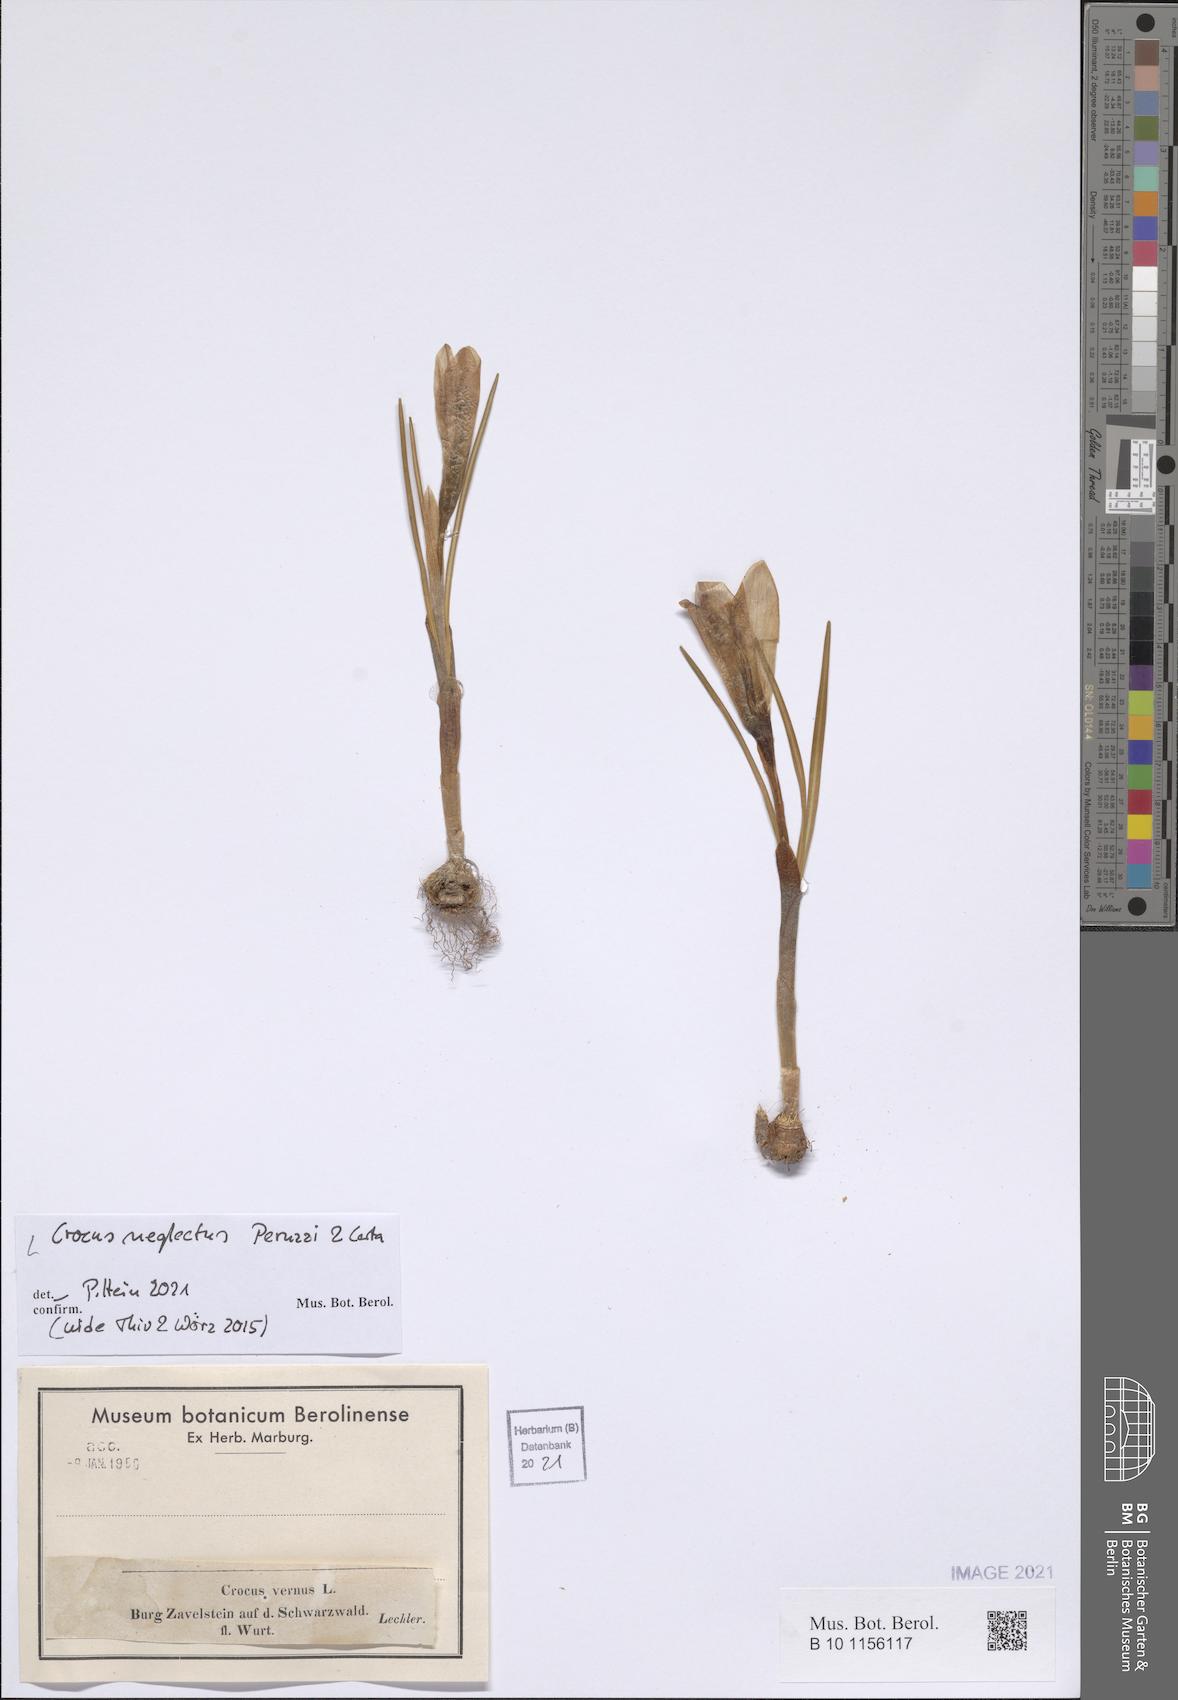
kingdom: Plantae
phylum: Tracheophyta
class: Liliopsida
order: Asparagales
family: Iridaceae
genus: Crocus
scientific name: Crocus neglectus
